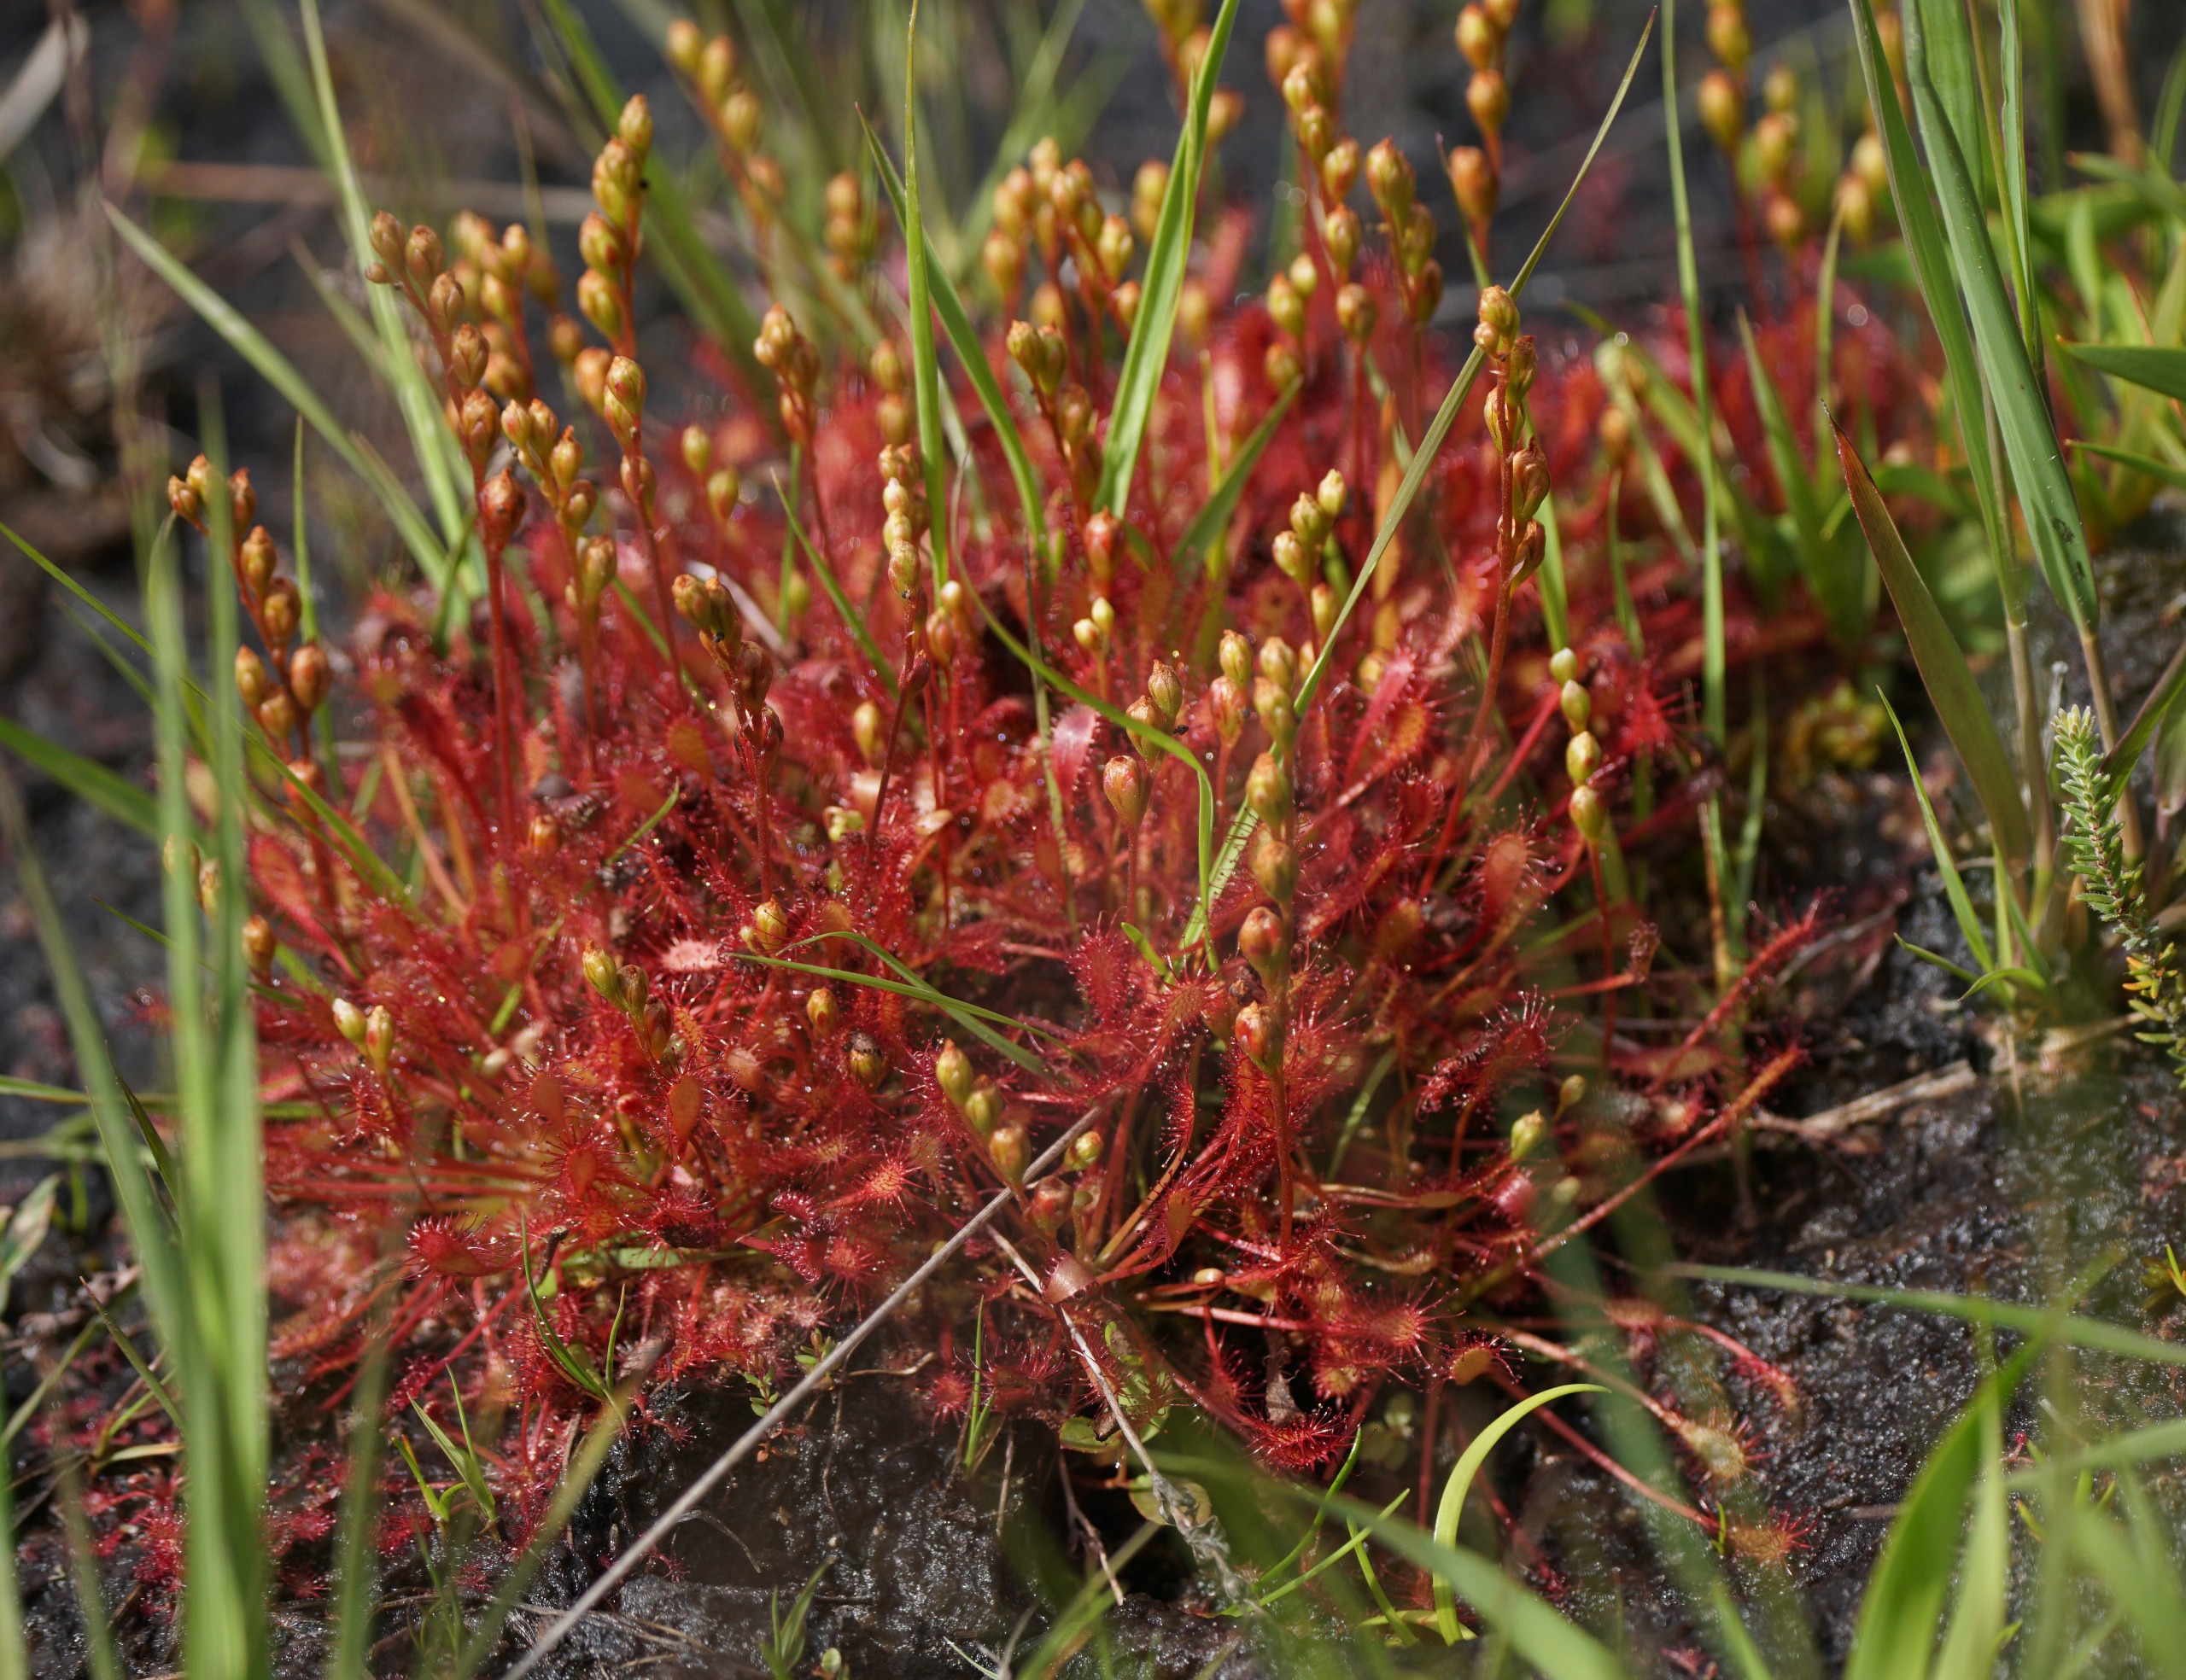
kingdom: Plantae
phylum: Tracheophyta
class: Magnoliopsida
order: Caryophyllales
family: Droseraceae
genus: Drosera
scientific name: Drosera intermedia
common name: Liden soldug
